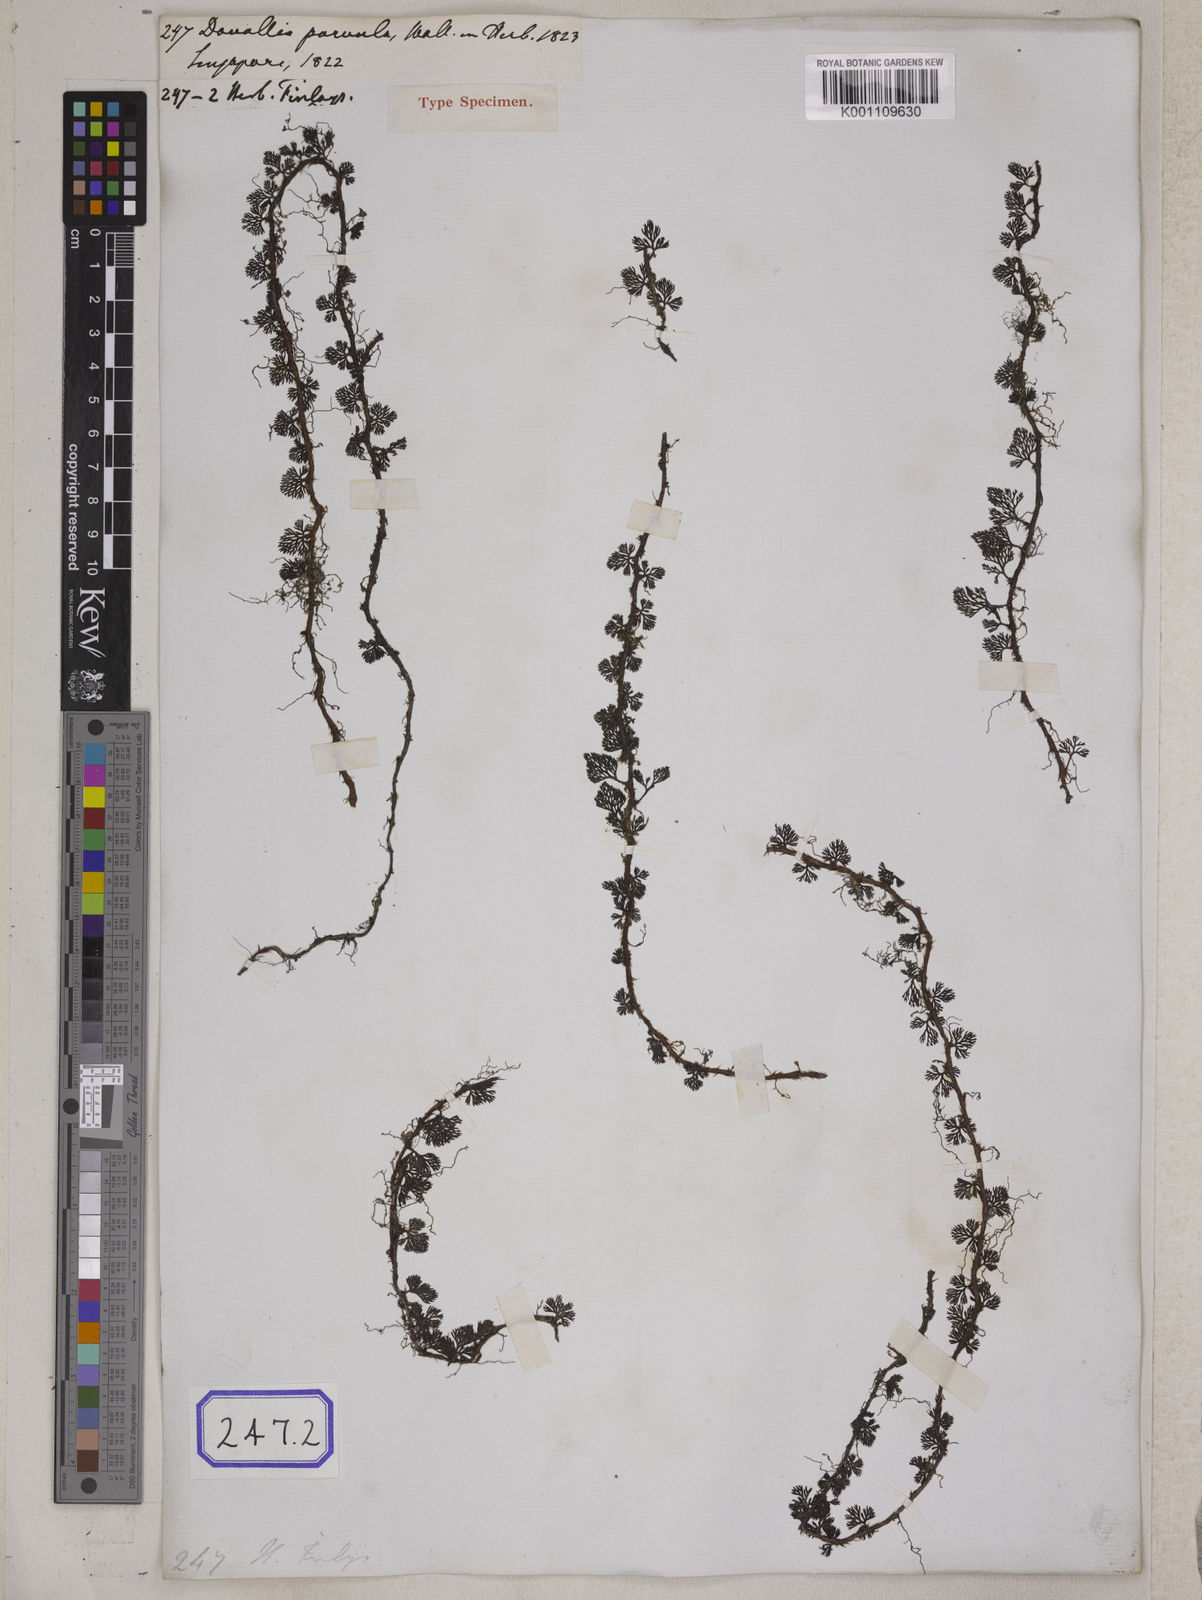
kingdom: Plantae
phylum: Tracheophyta
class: Polypodiopsida
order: Polypodiales
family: Davalliaceae
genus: Davallia
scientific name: Davallia parvula
